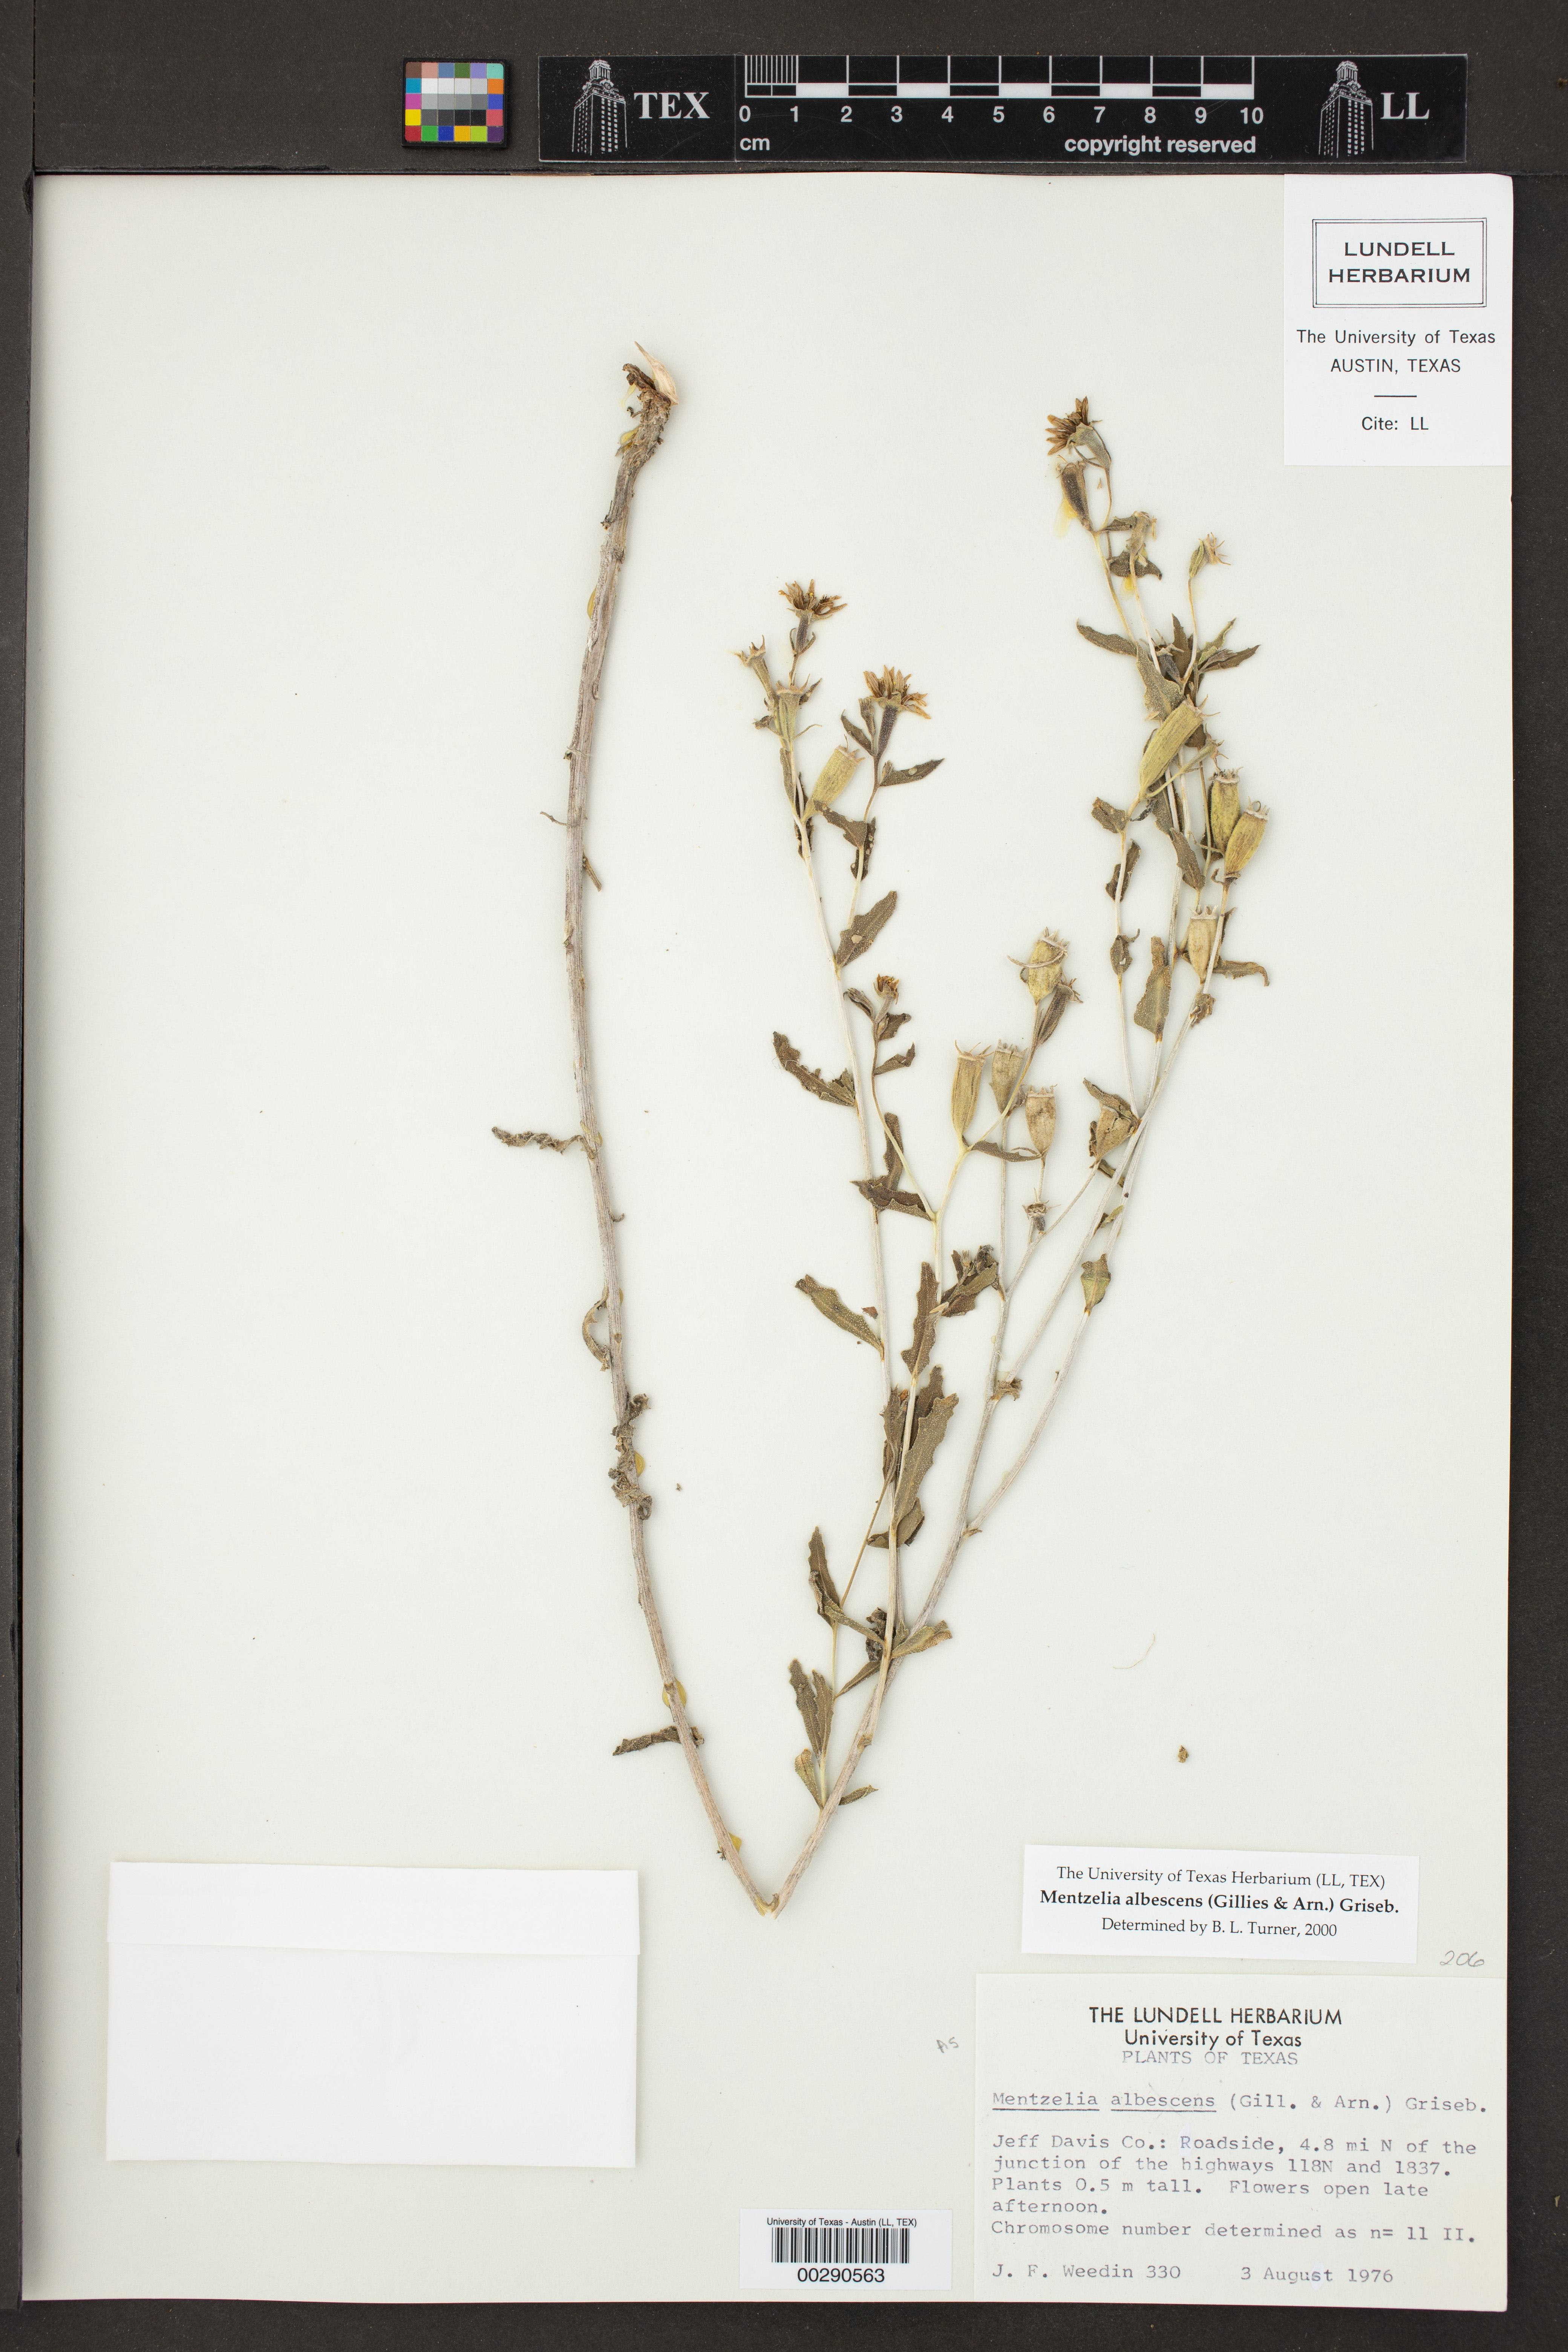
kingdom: Plantae
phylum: Tracheophyta
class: Magnoliopsida
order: Cornales
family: Loasaceae
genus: Mentzelia
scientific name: Mentzelia albescens
